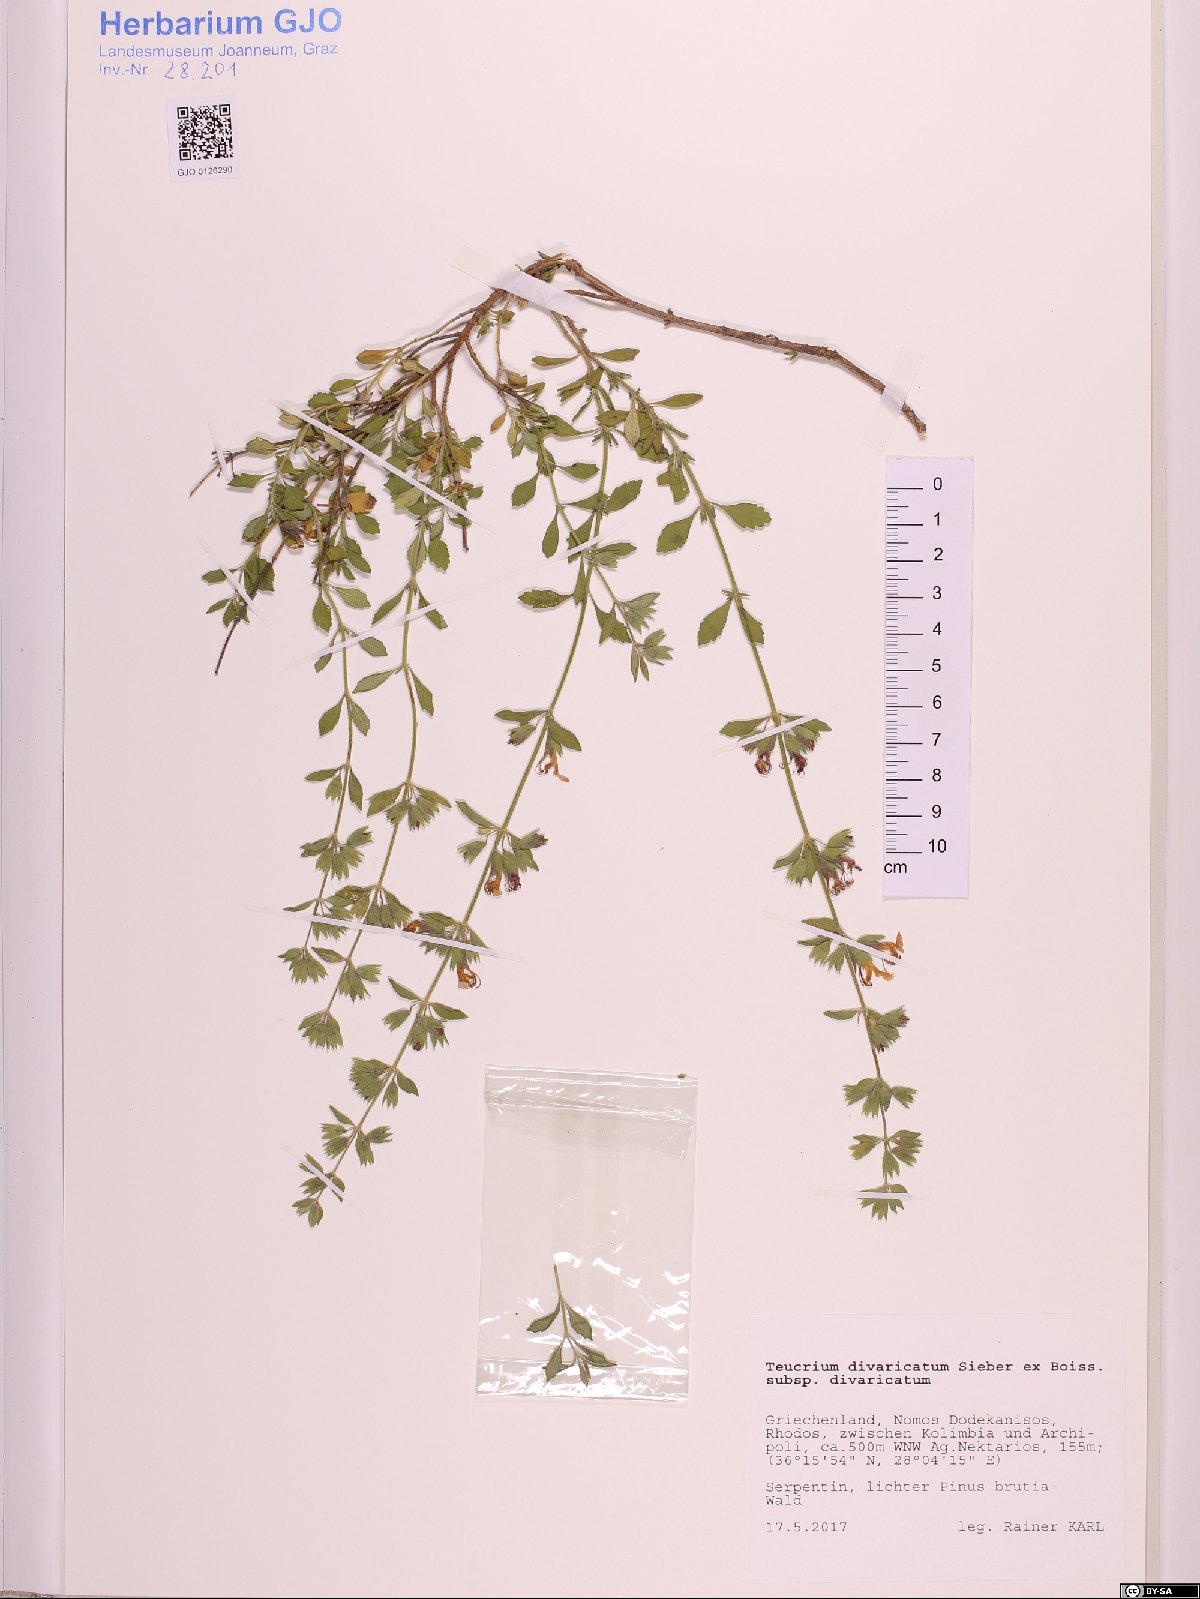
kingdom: Plantae
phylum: Tracheophyta
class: Magnoliopsida
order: Lamiales
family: Lamiaceae
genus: Teucrium
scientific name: Teucrium divaricatum
